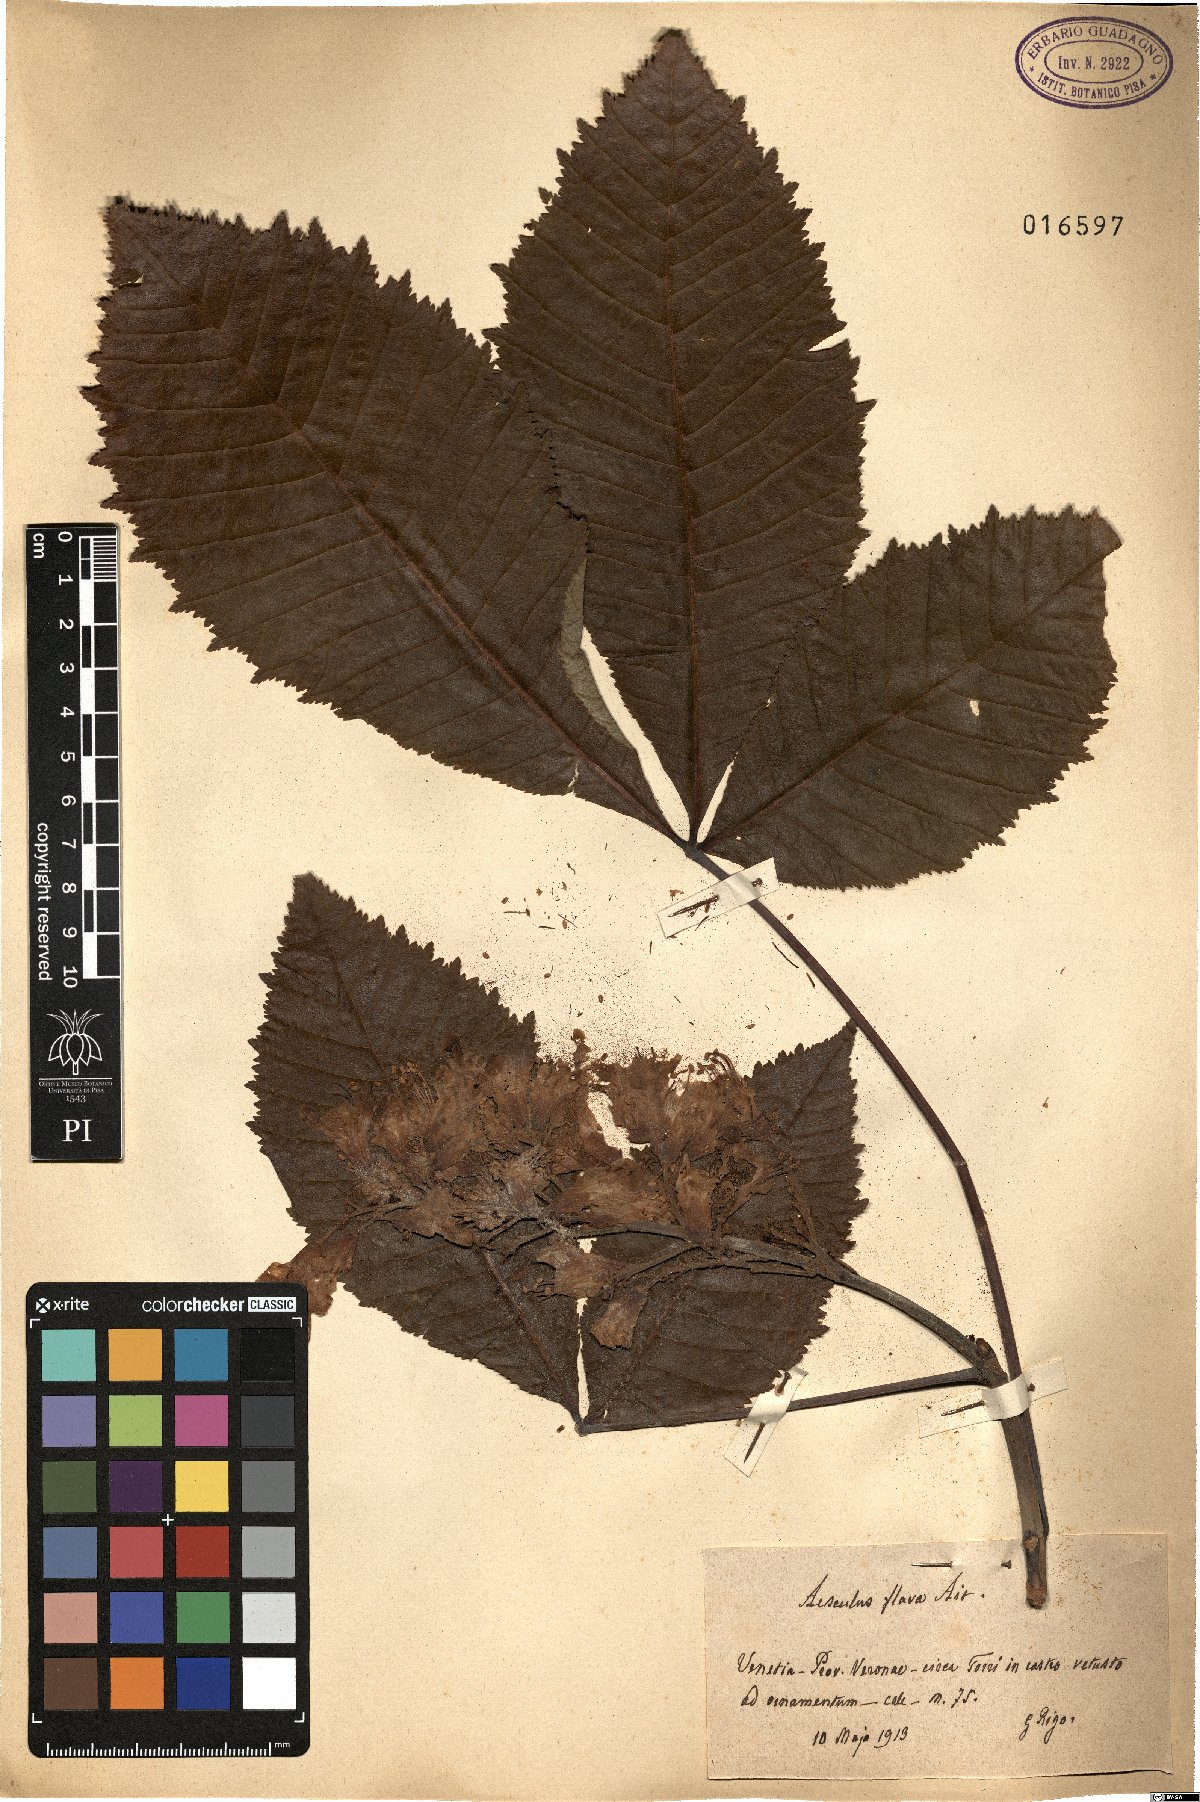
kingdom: Plantae
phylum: Tracheophyta
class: Magnoliopsida
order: Sapindales
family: Sapindaceae
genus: Aesculus
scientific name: Aesculus flava
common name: Yellow buckeye
